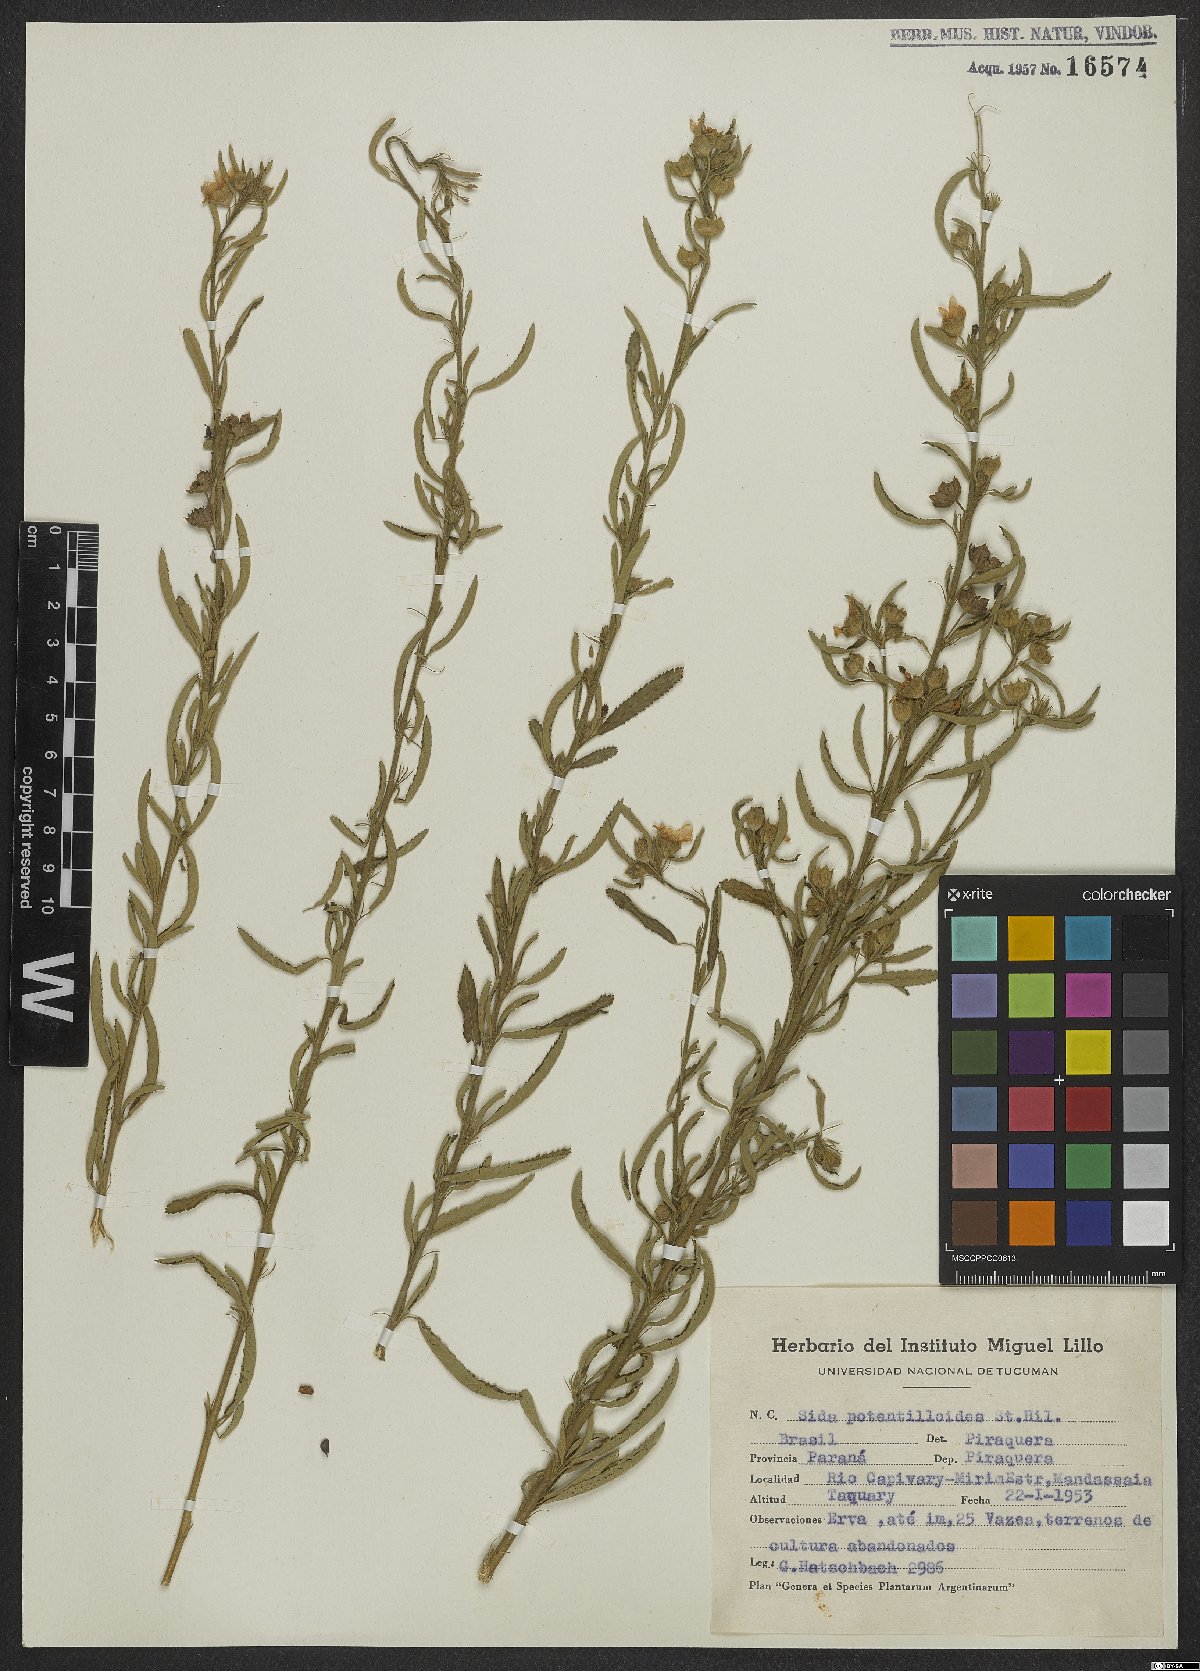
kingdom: Plantae
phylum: Tracheophyta
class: Magnoliopsida
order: Malvales
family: Malvaceae
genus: Sida
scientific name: Sida potentilloides
